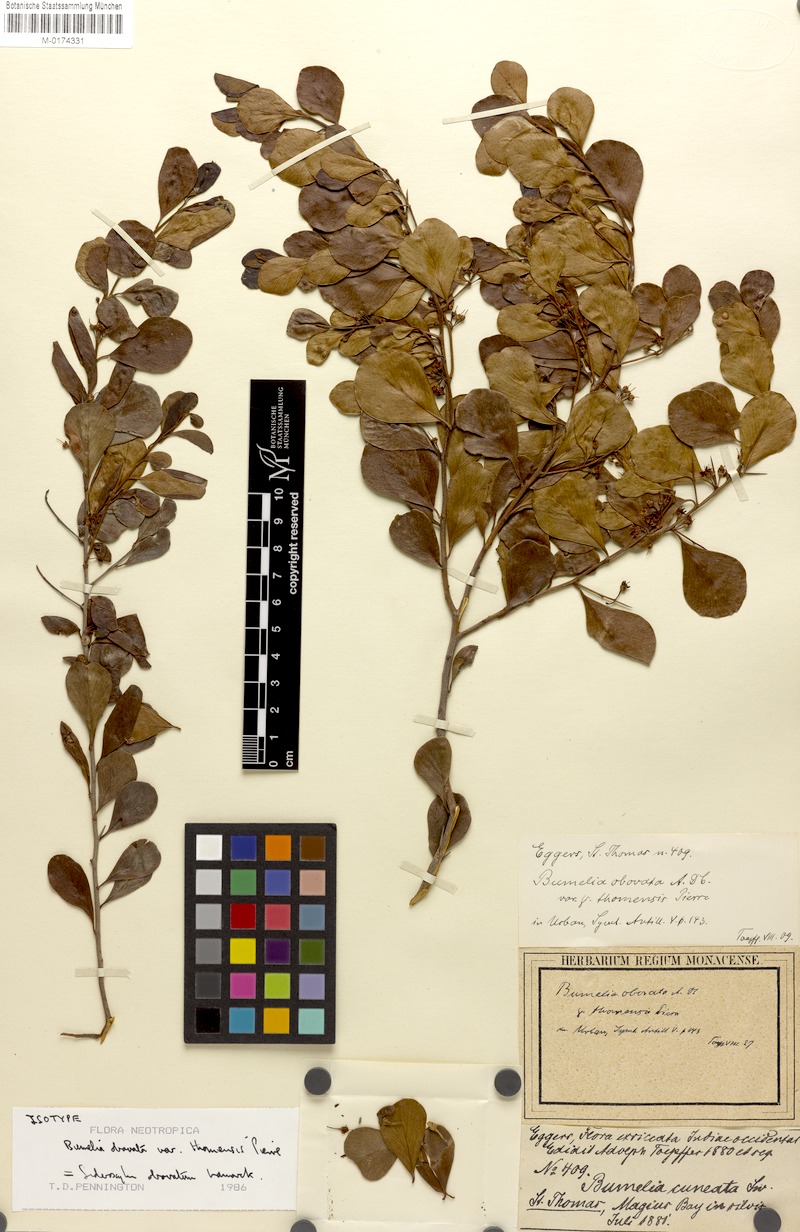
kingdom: Plantae
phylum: Tracheophyta
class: Magnoliopsida
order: Ericales
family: Sapotaceae
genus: Sideroxylon
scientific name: Sideroxylon obovatum
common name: Breakbill
